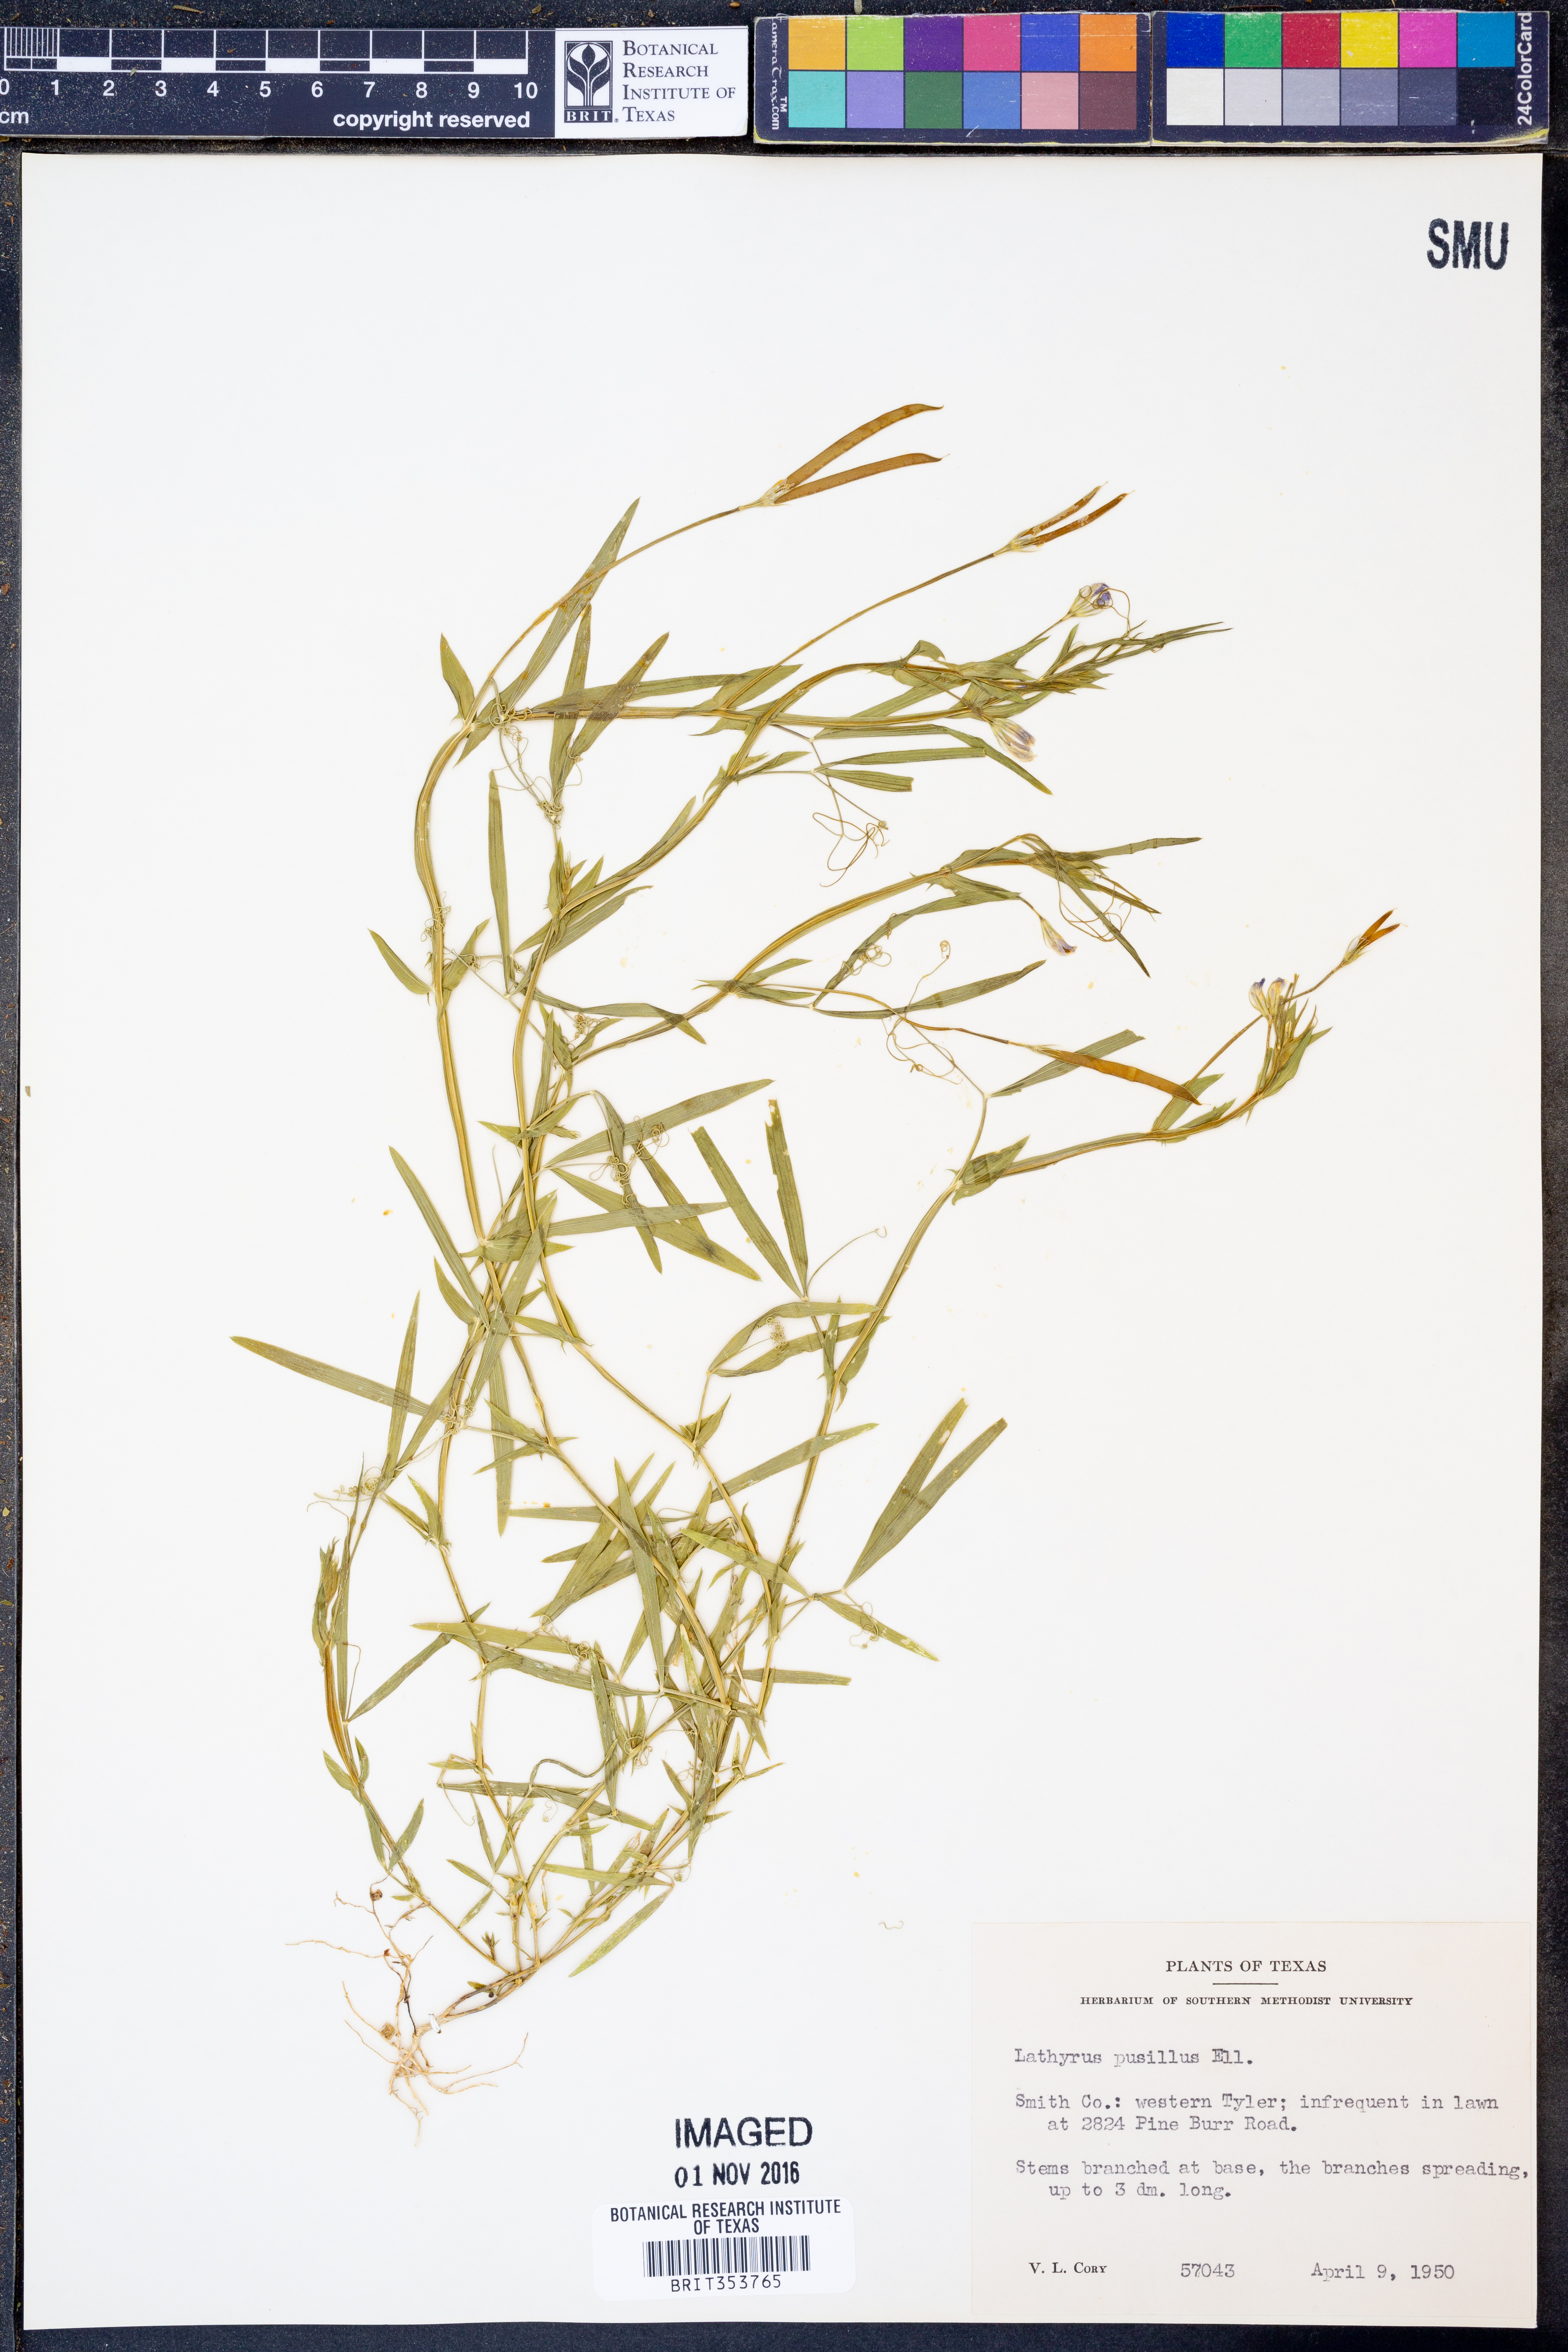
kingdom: Plantae
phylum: Tracheophyta
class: Magnoliopsida
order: Fabales
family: Fabaceae
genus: Lathyrus
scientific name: Lathyrus pusillus
